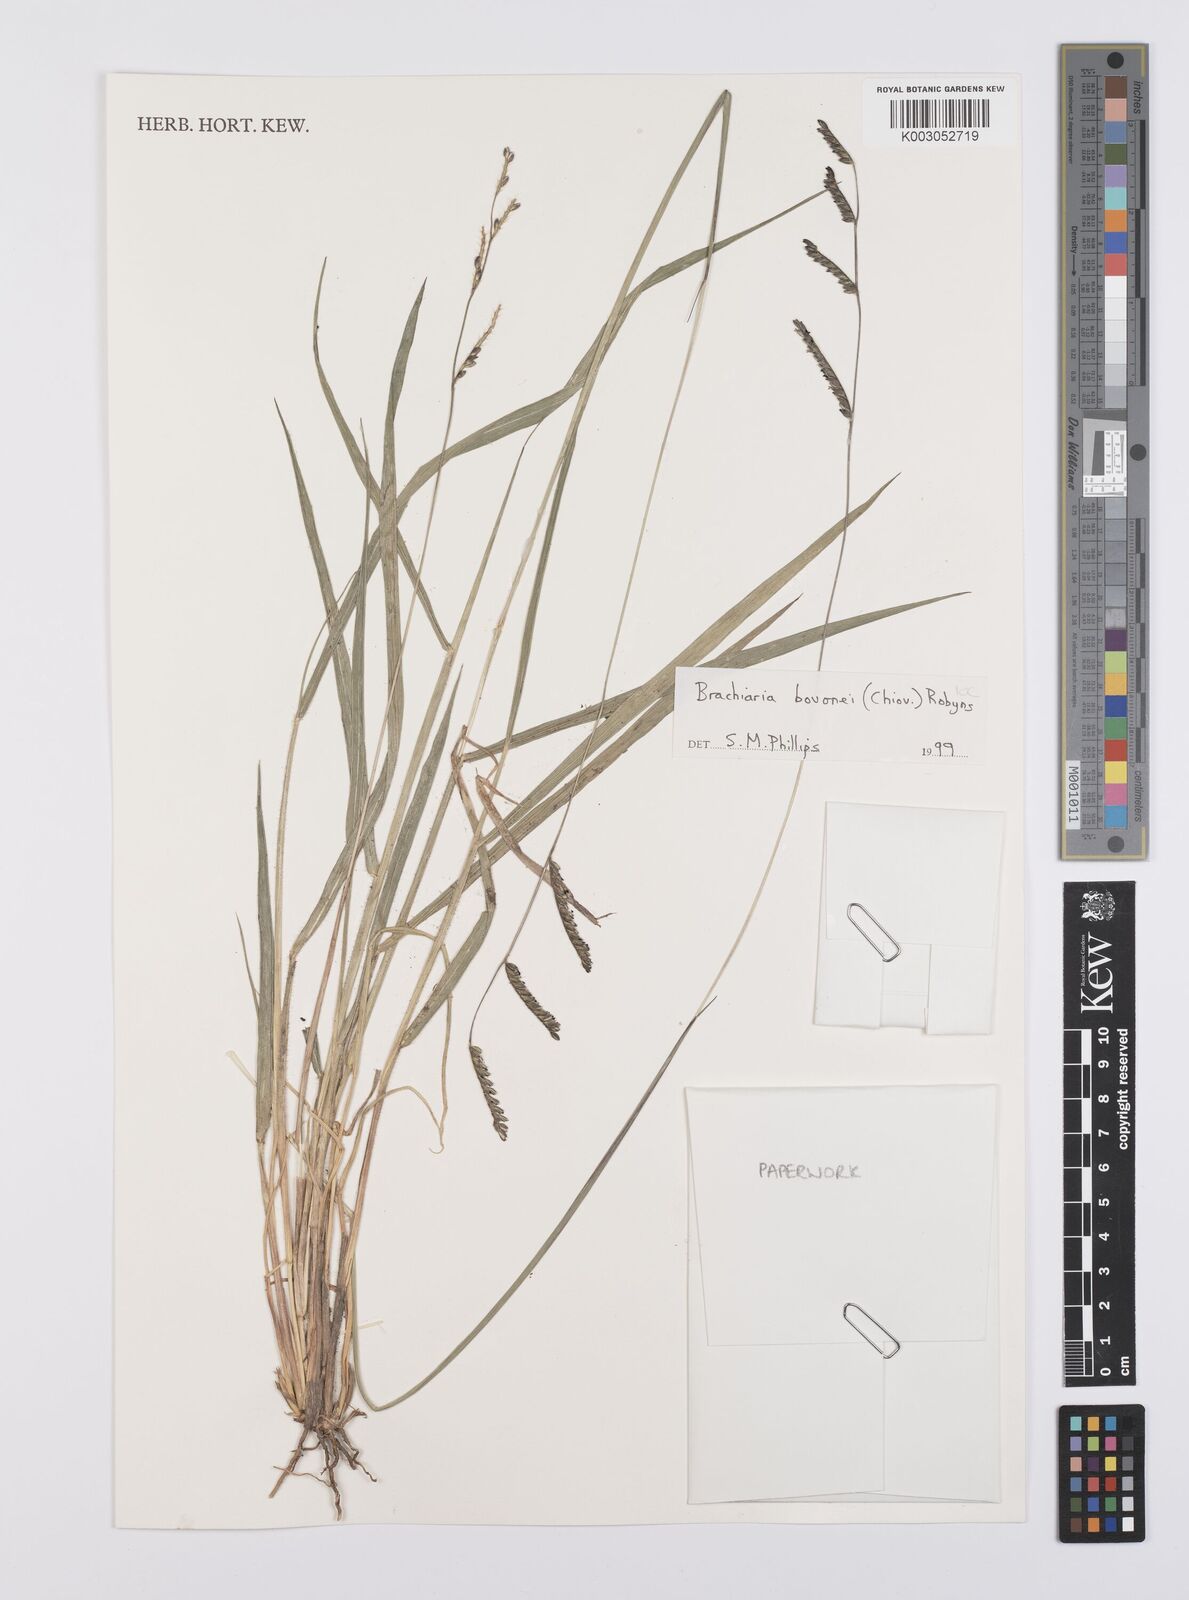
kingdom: Plantae
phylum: Tracheophyta
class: Liliopsida
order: Poales
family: Poaceae
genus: Urochloa
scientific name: Urochloa bovonei
